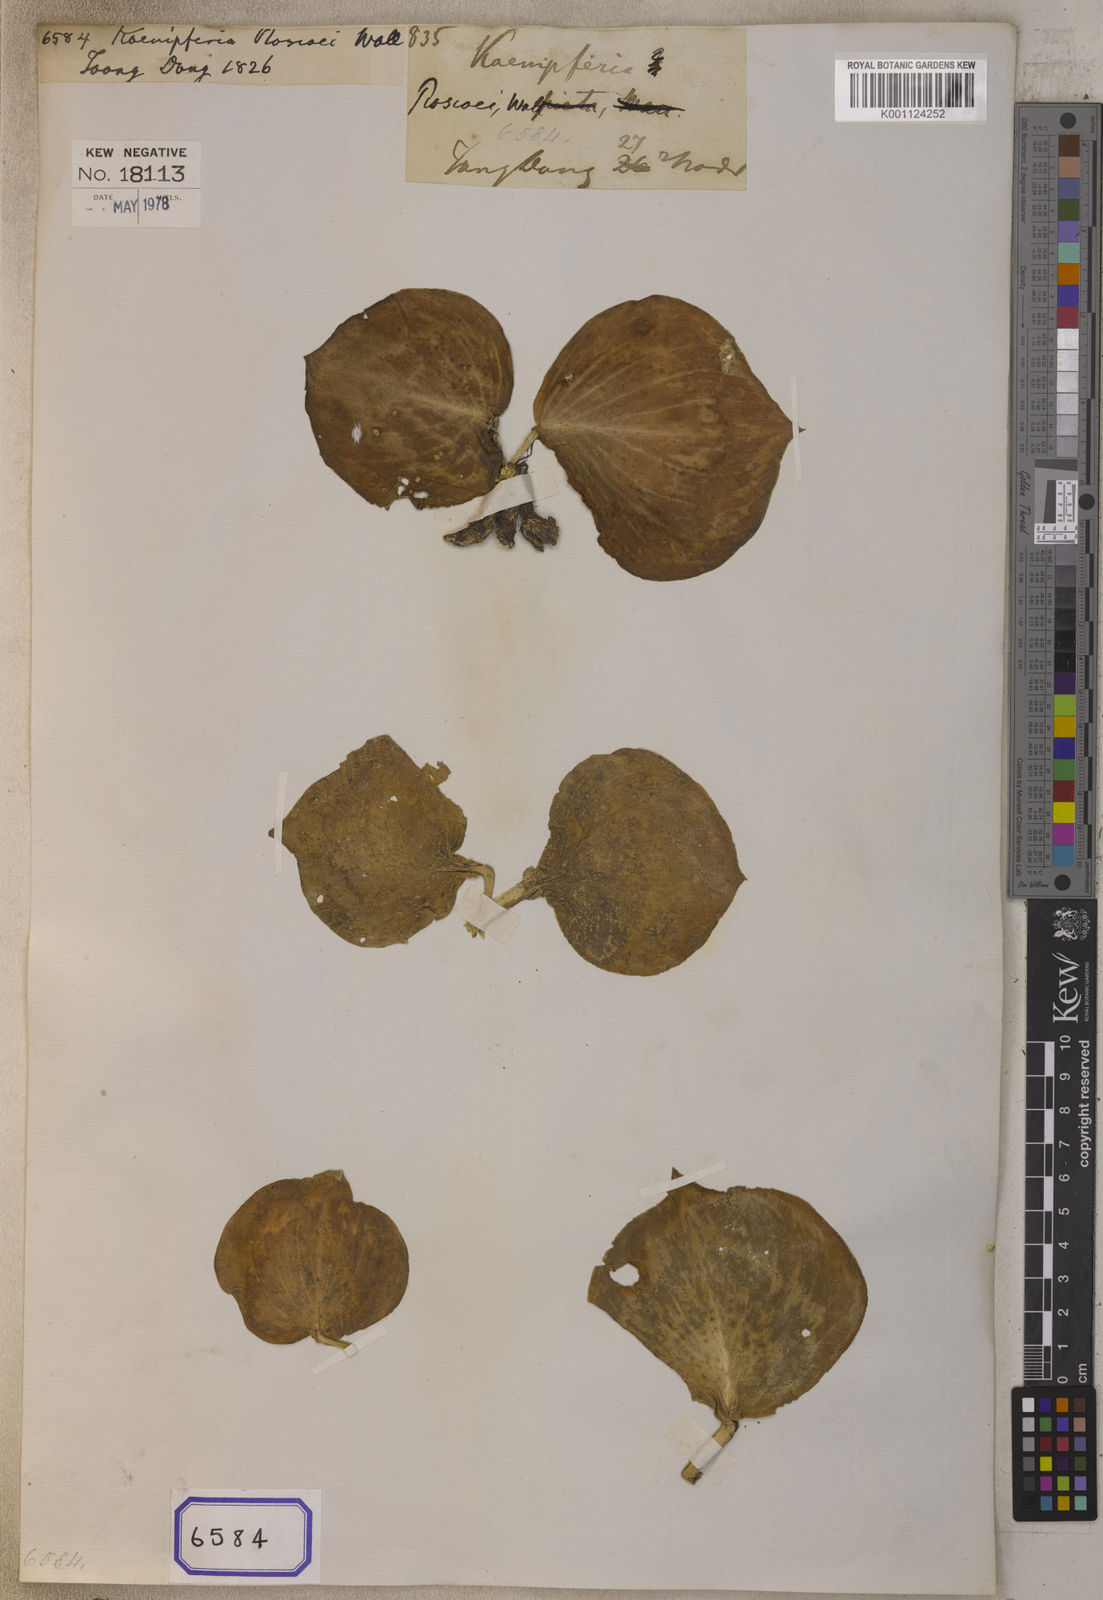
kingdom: Plantae
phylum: Tracheophyta
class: Liliopsida
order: Zingiberales
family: Zingiberaceae
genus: Kaempferia
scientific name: Kaempferia
